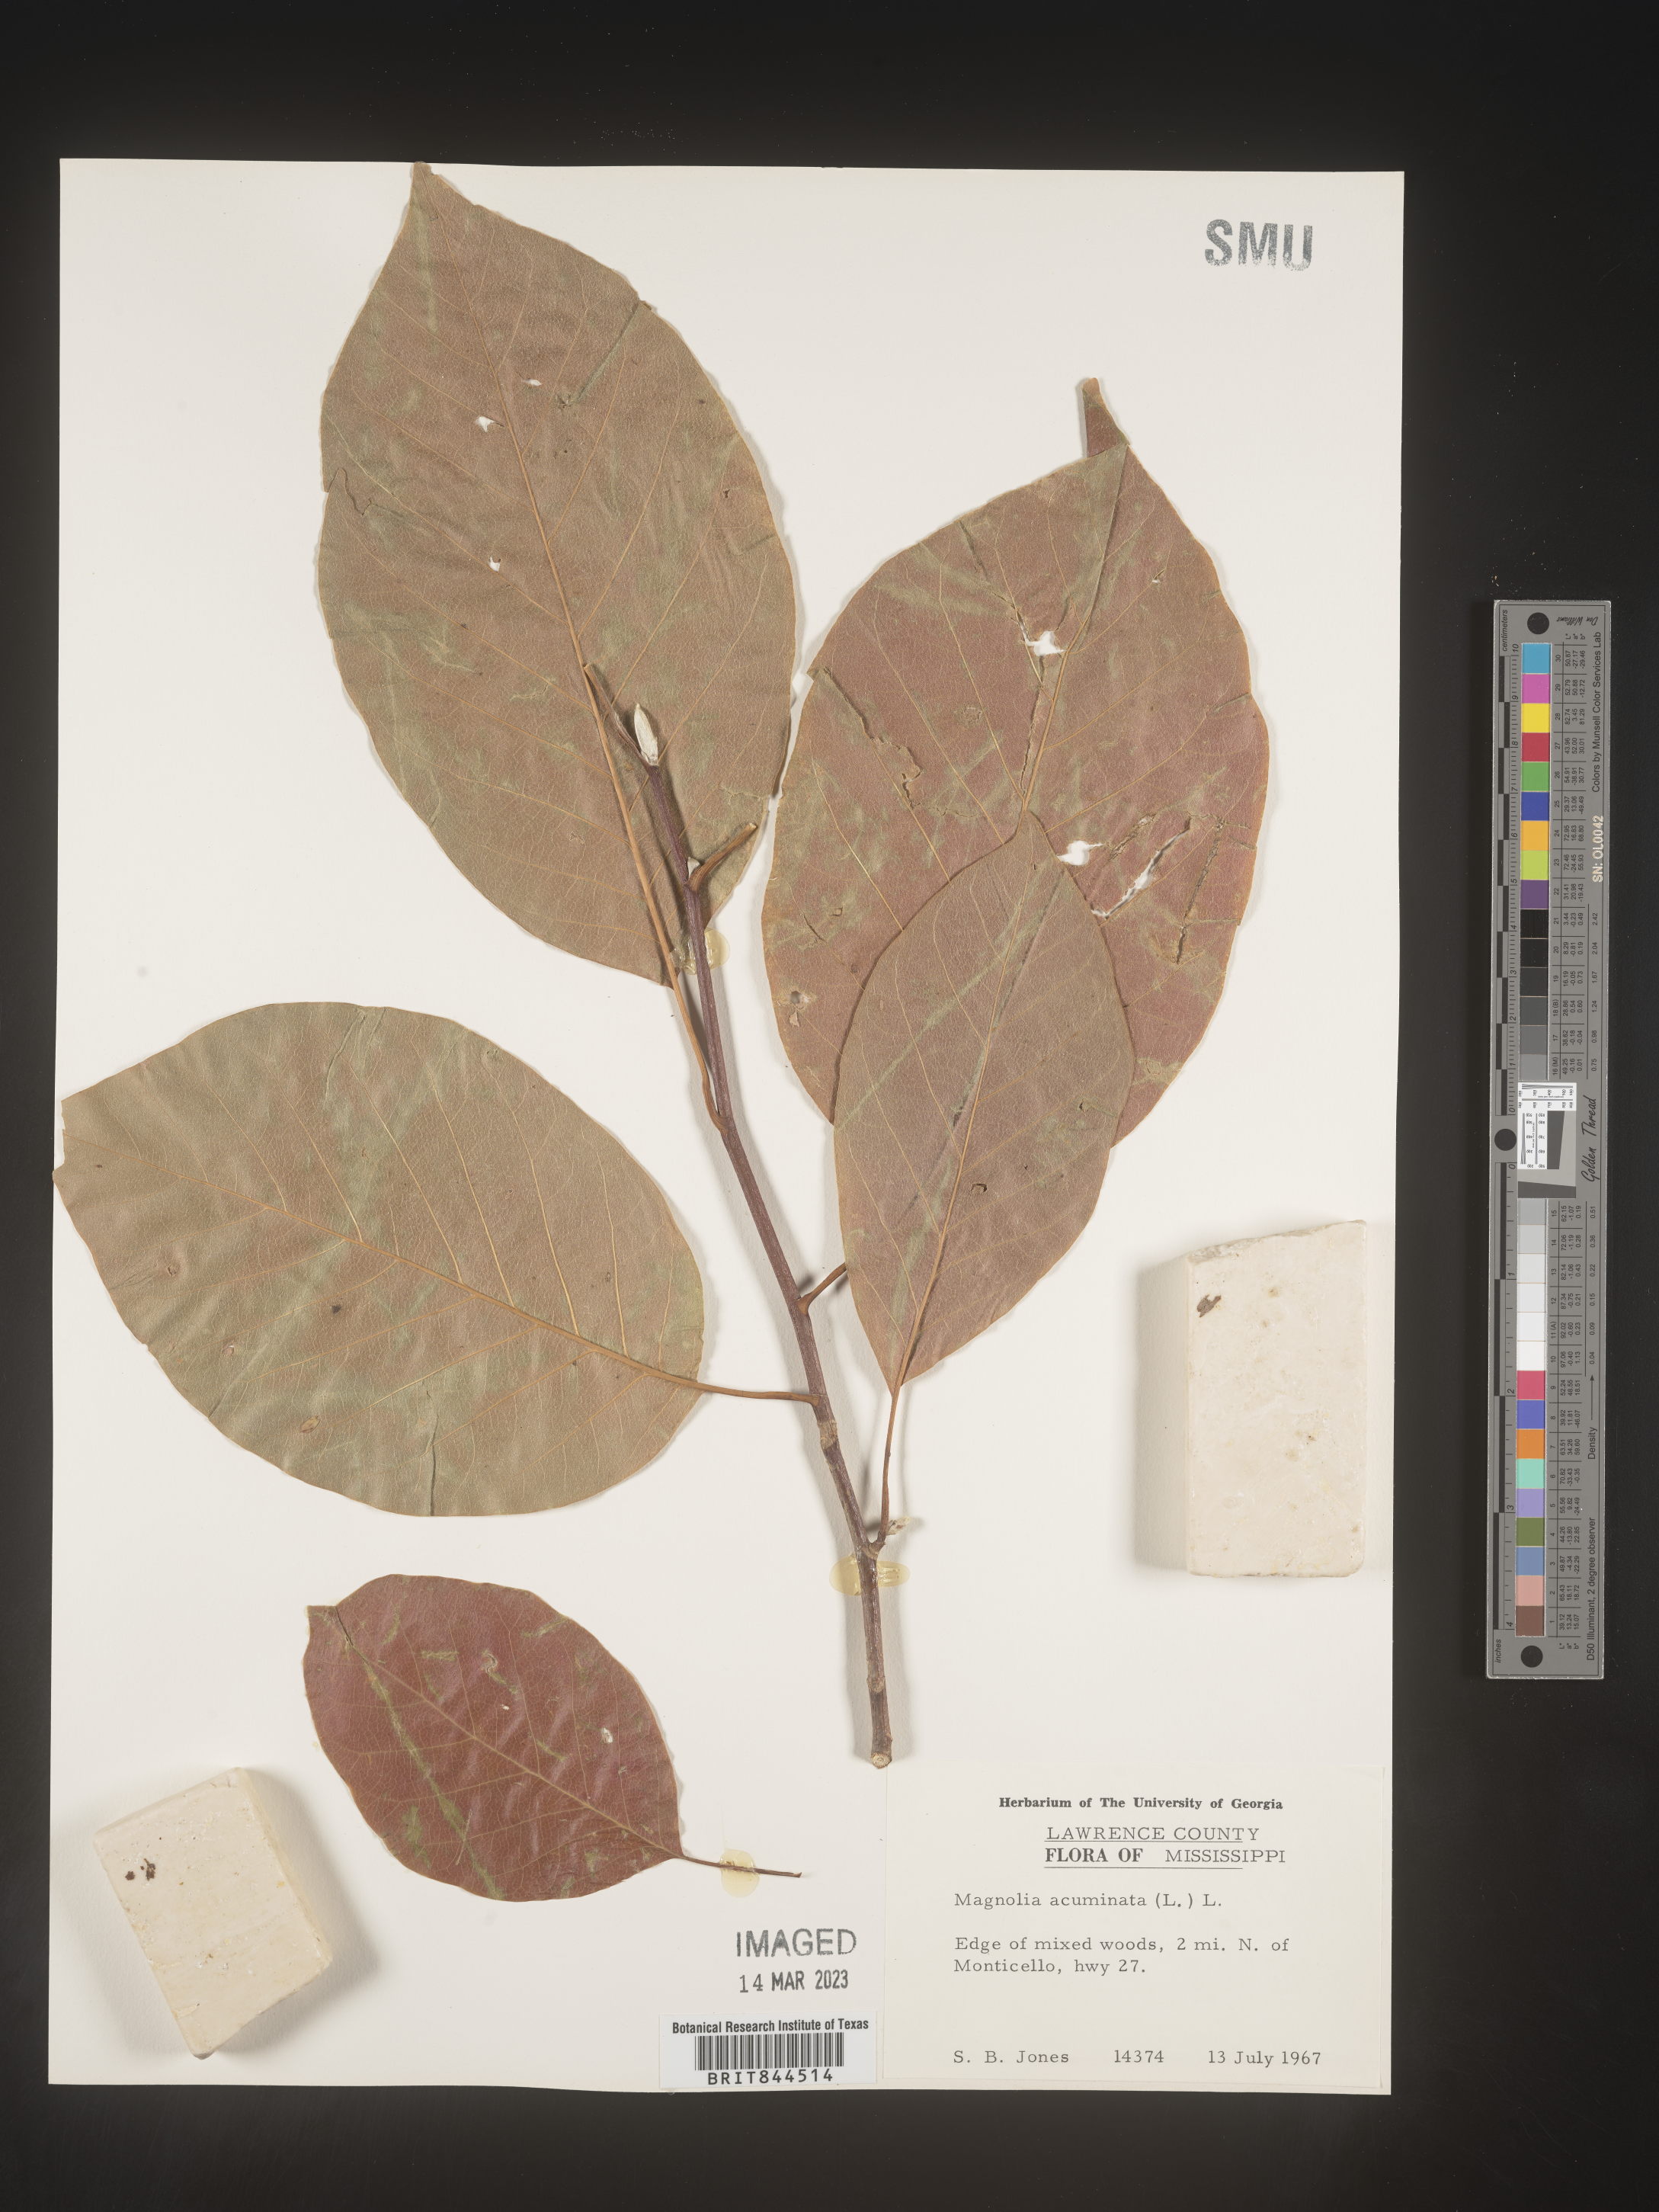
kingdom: Plantae
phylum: Tracheophyta
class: Magnoliopsida
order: Magnoliales
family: Magnoliaceae
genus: Magnolia
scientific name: Magnolia acuminata
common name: Cucumber magnolia
